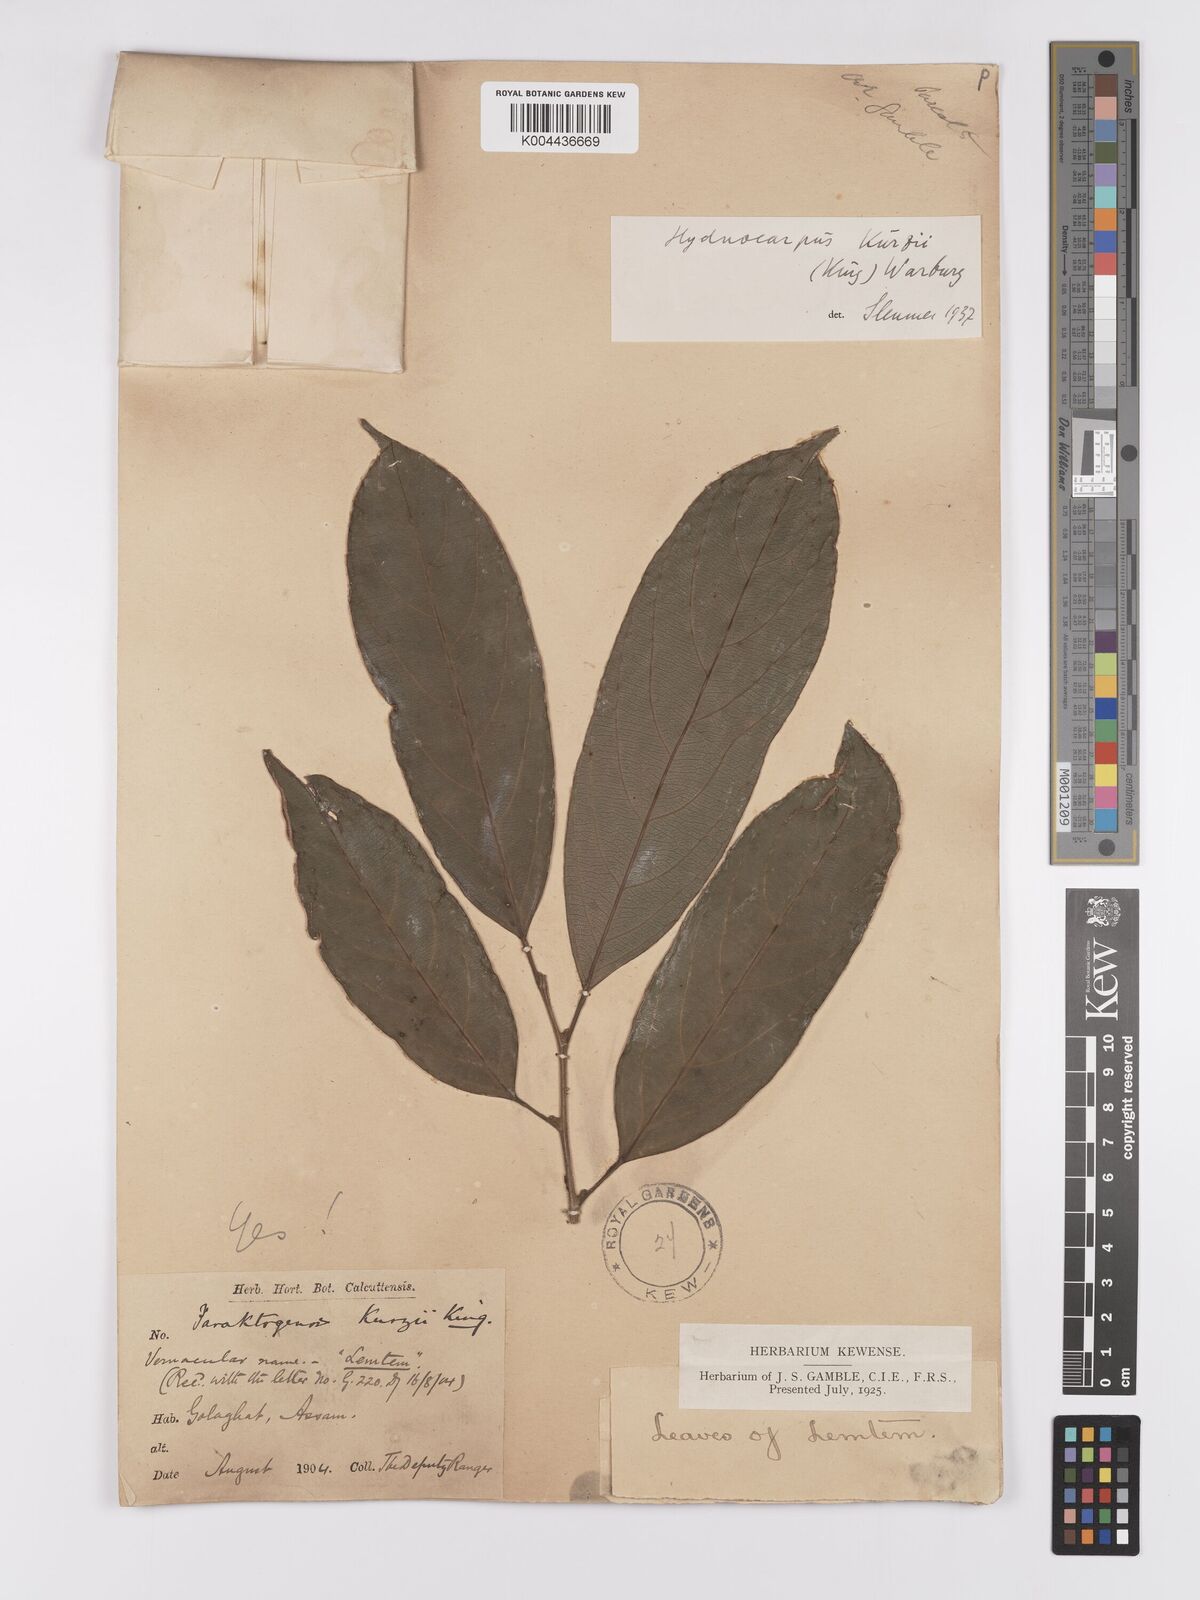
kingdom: Plantae
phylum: Tracheophyta
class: Magnoliopsida
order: Malpighiales
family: Achariaceae
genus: Hydnocarpus
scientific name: Hydnocarpus kurzii
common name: Chaulmoogra
